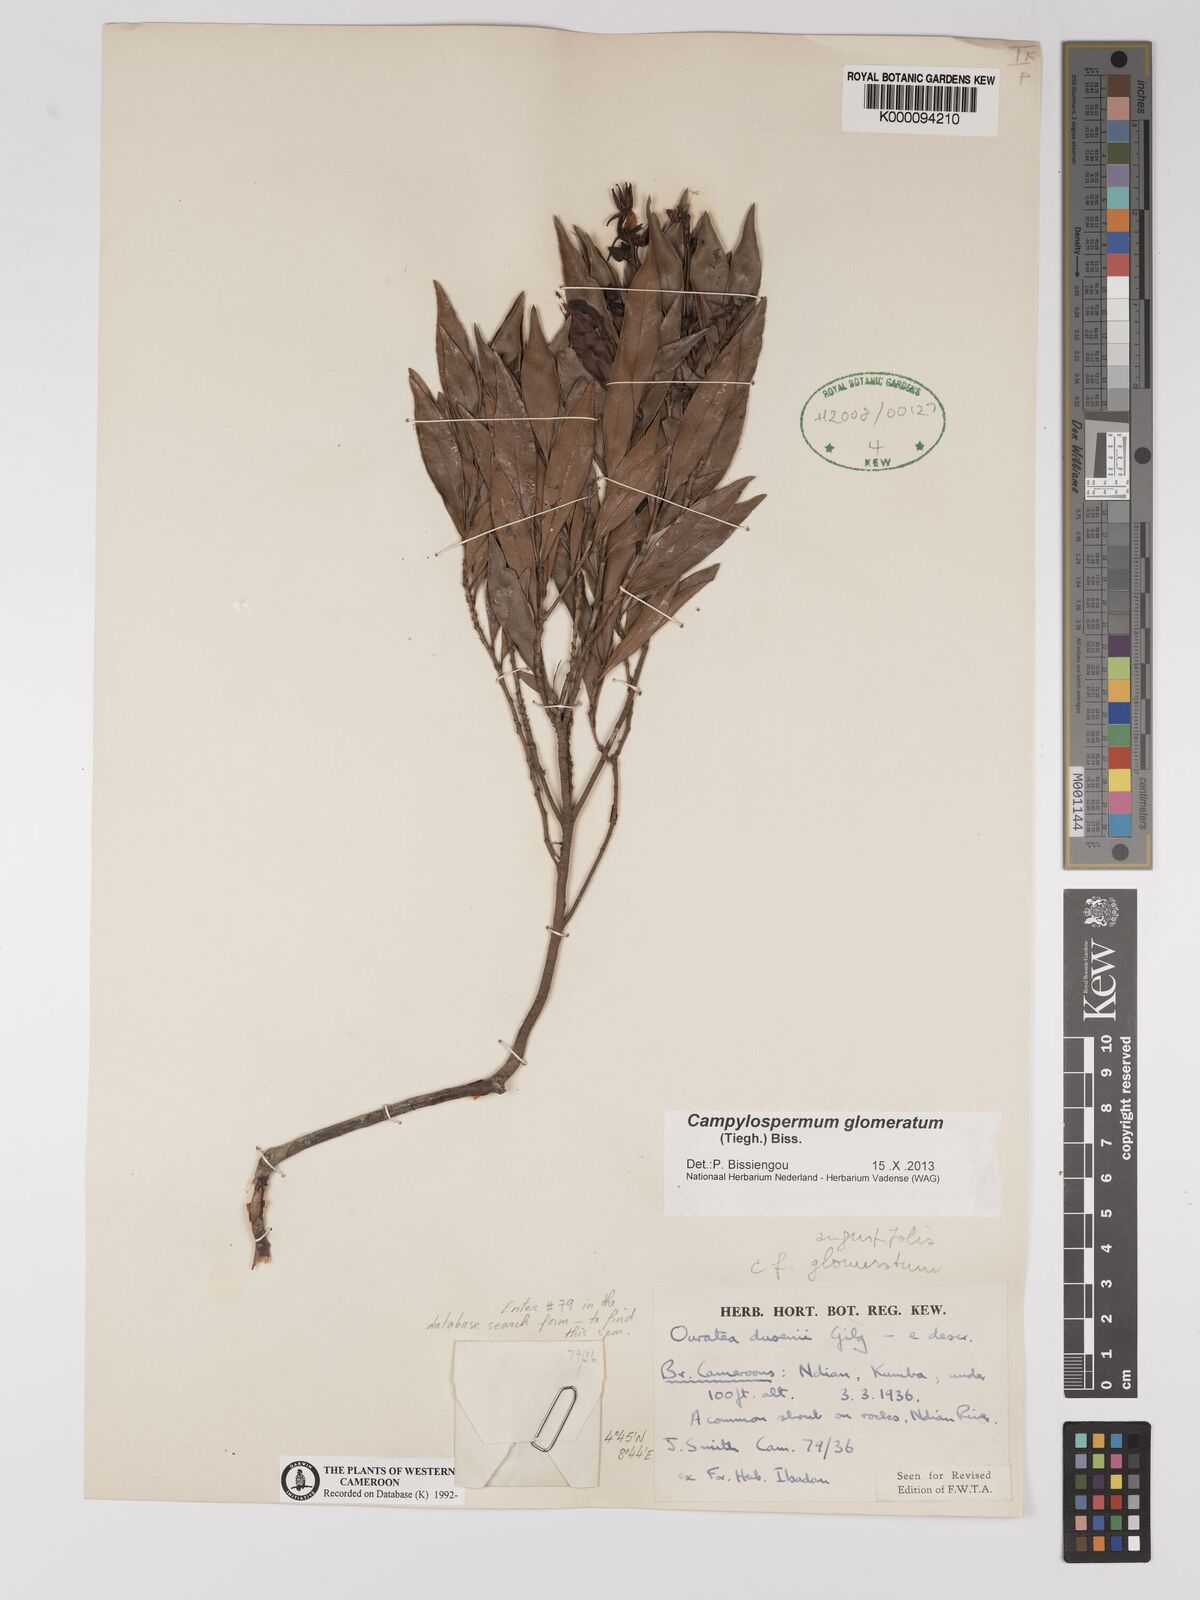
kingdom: Plantae
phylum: Tracheophyta
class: Magnoliopsida
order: Malpighiales
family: Ochnaceae
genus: Campylospermum
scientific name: Campylospermum dusenii
